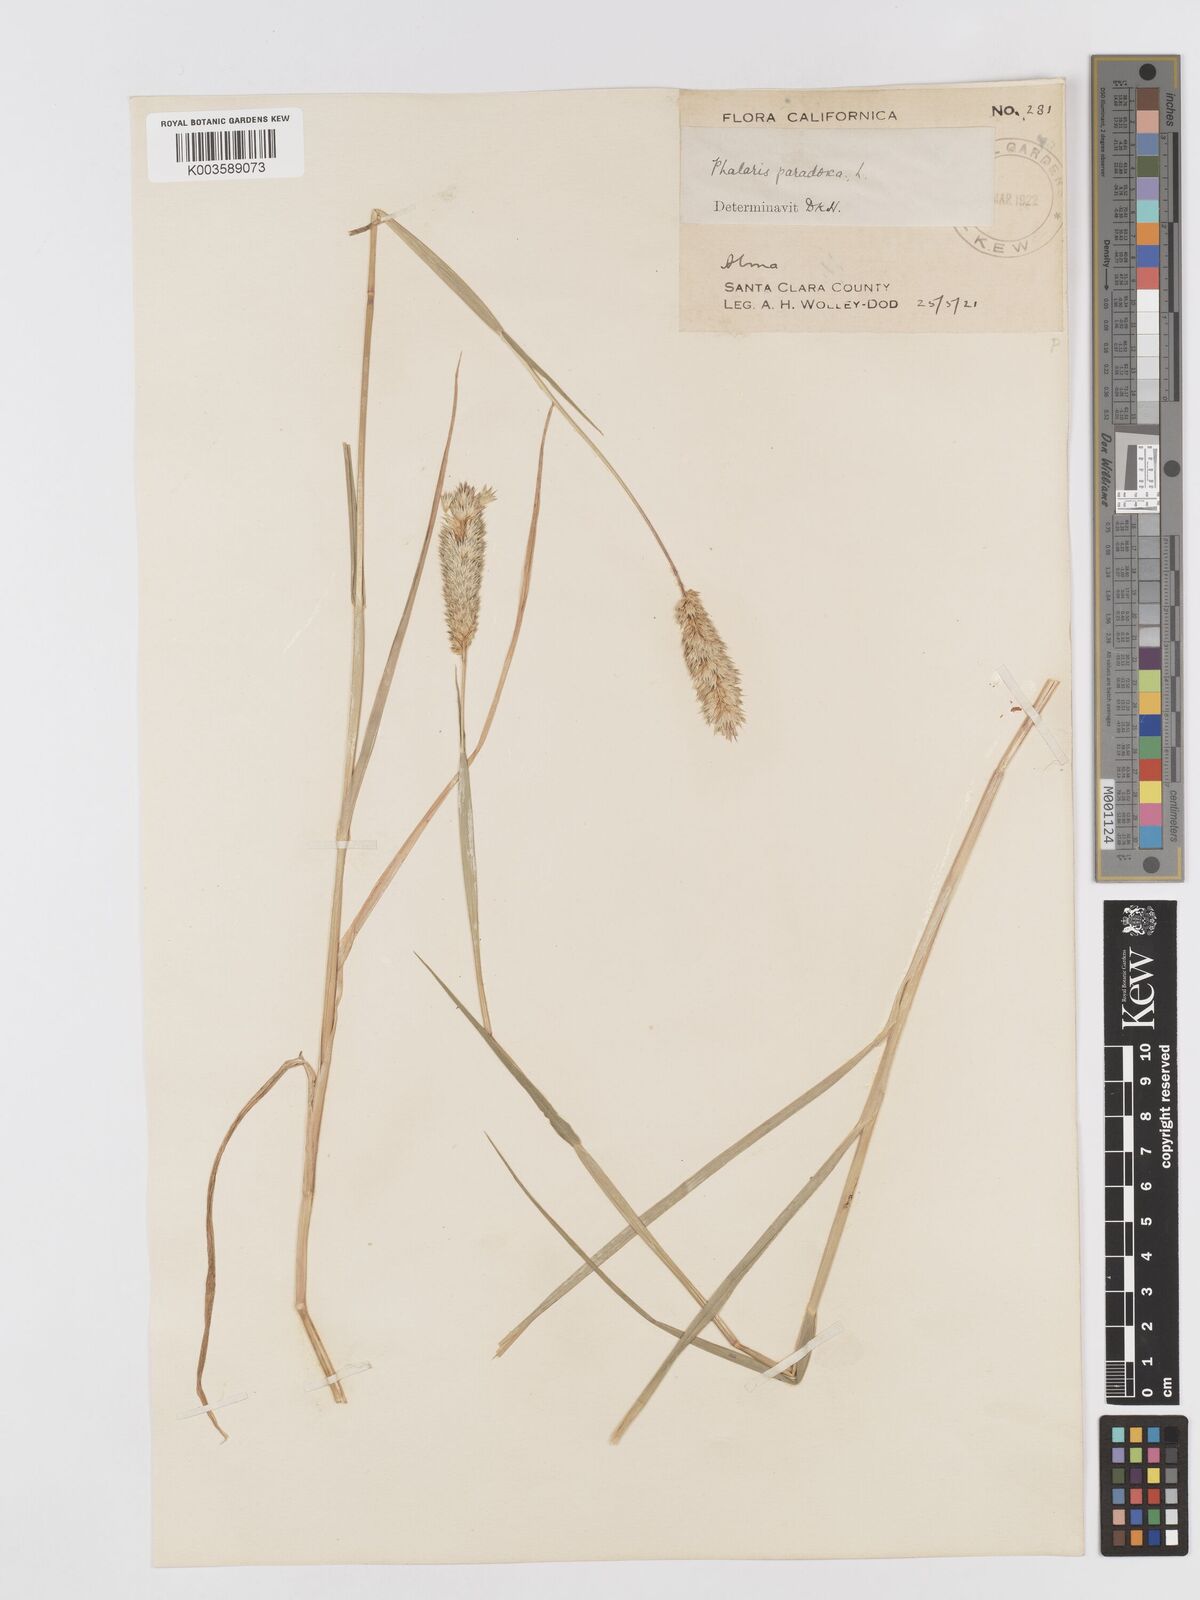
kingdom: Plantae
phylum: Tracheophyta
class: Liliopsida
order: Poales
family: Poaceae
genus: Phalaris
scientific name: Phalaris paradoxa
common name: Awned canary-grass
